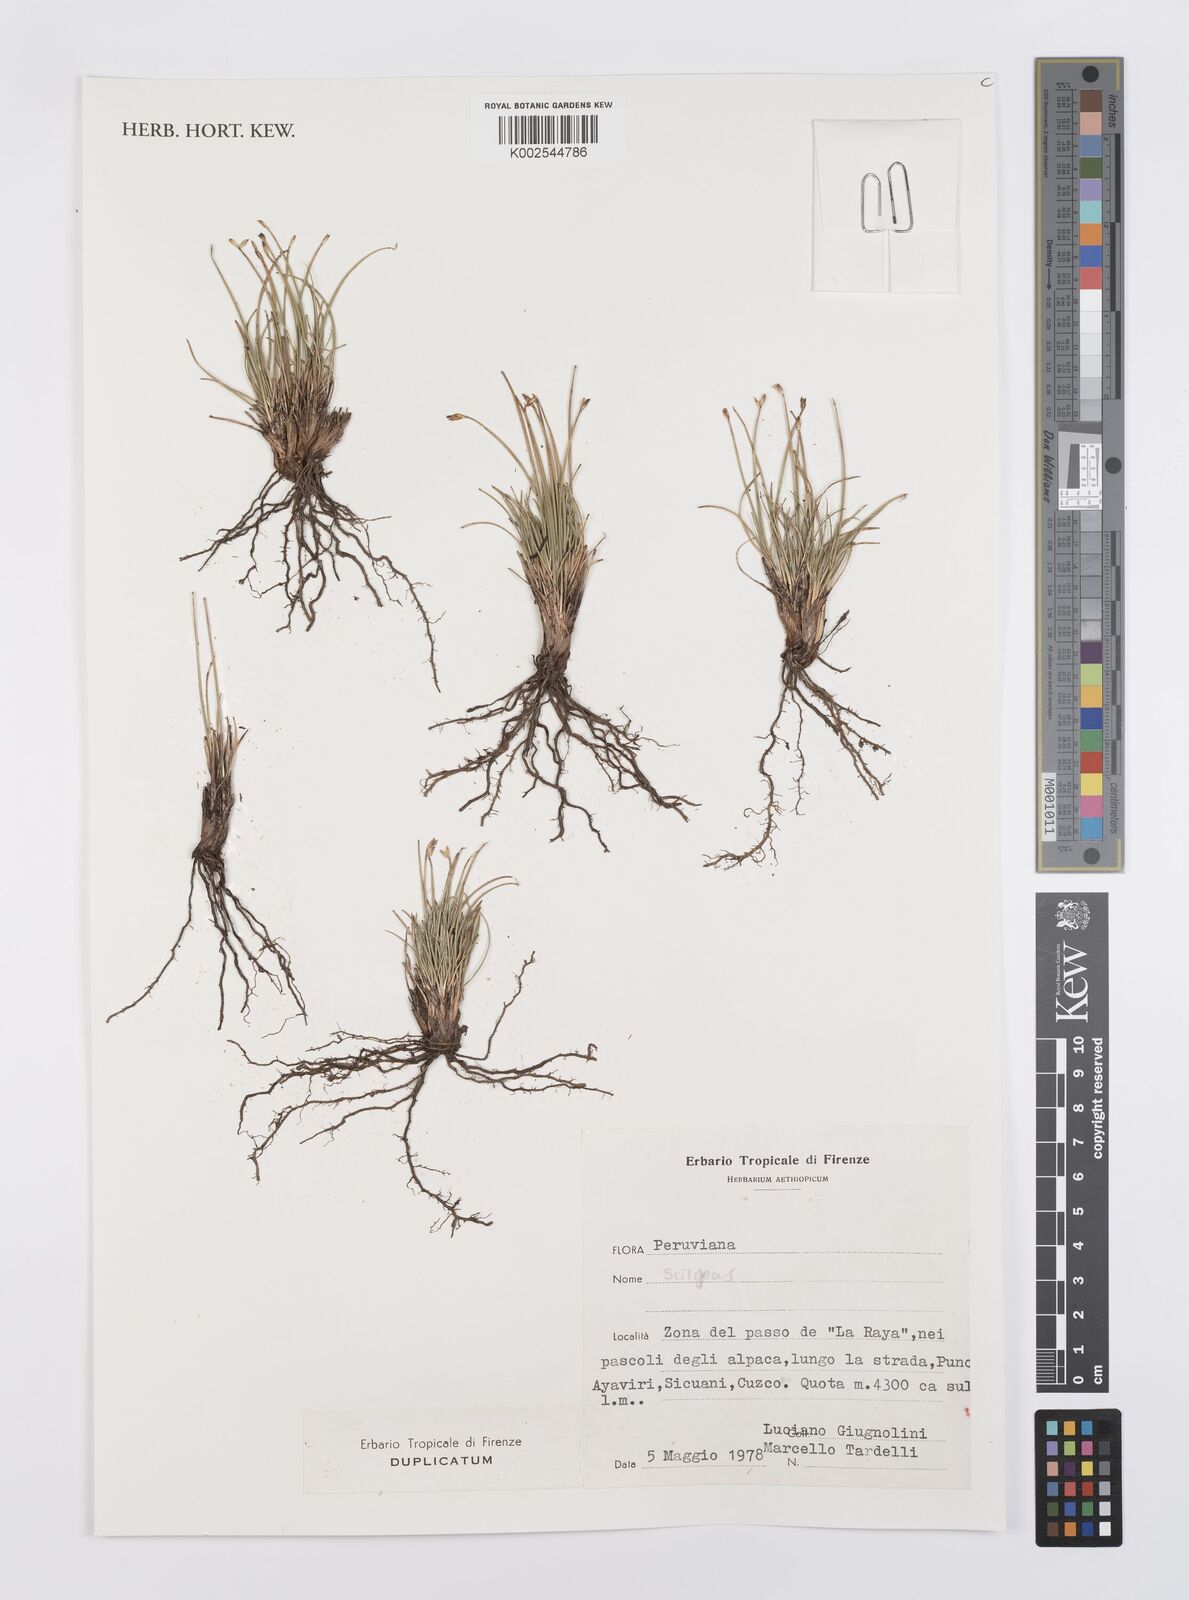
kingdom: Plantae
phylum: Tracheophyta
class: Liliopsida
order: Poales
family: Cyperaceae
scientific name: Cyperaceae
